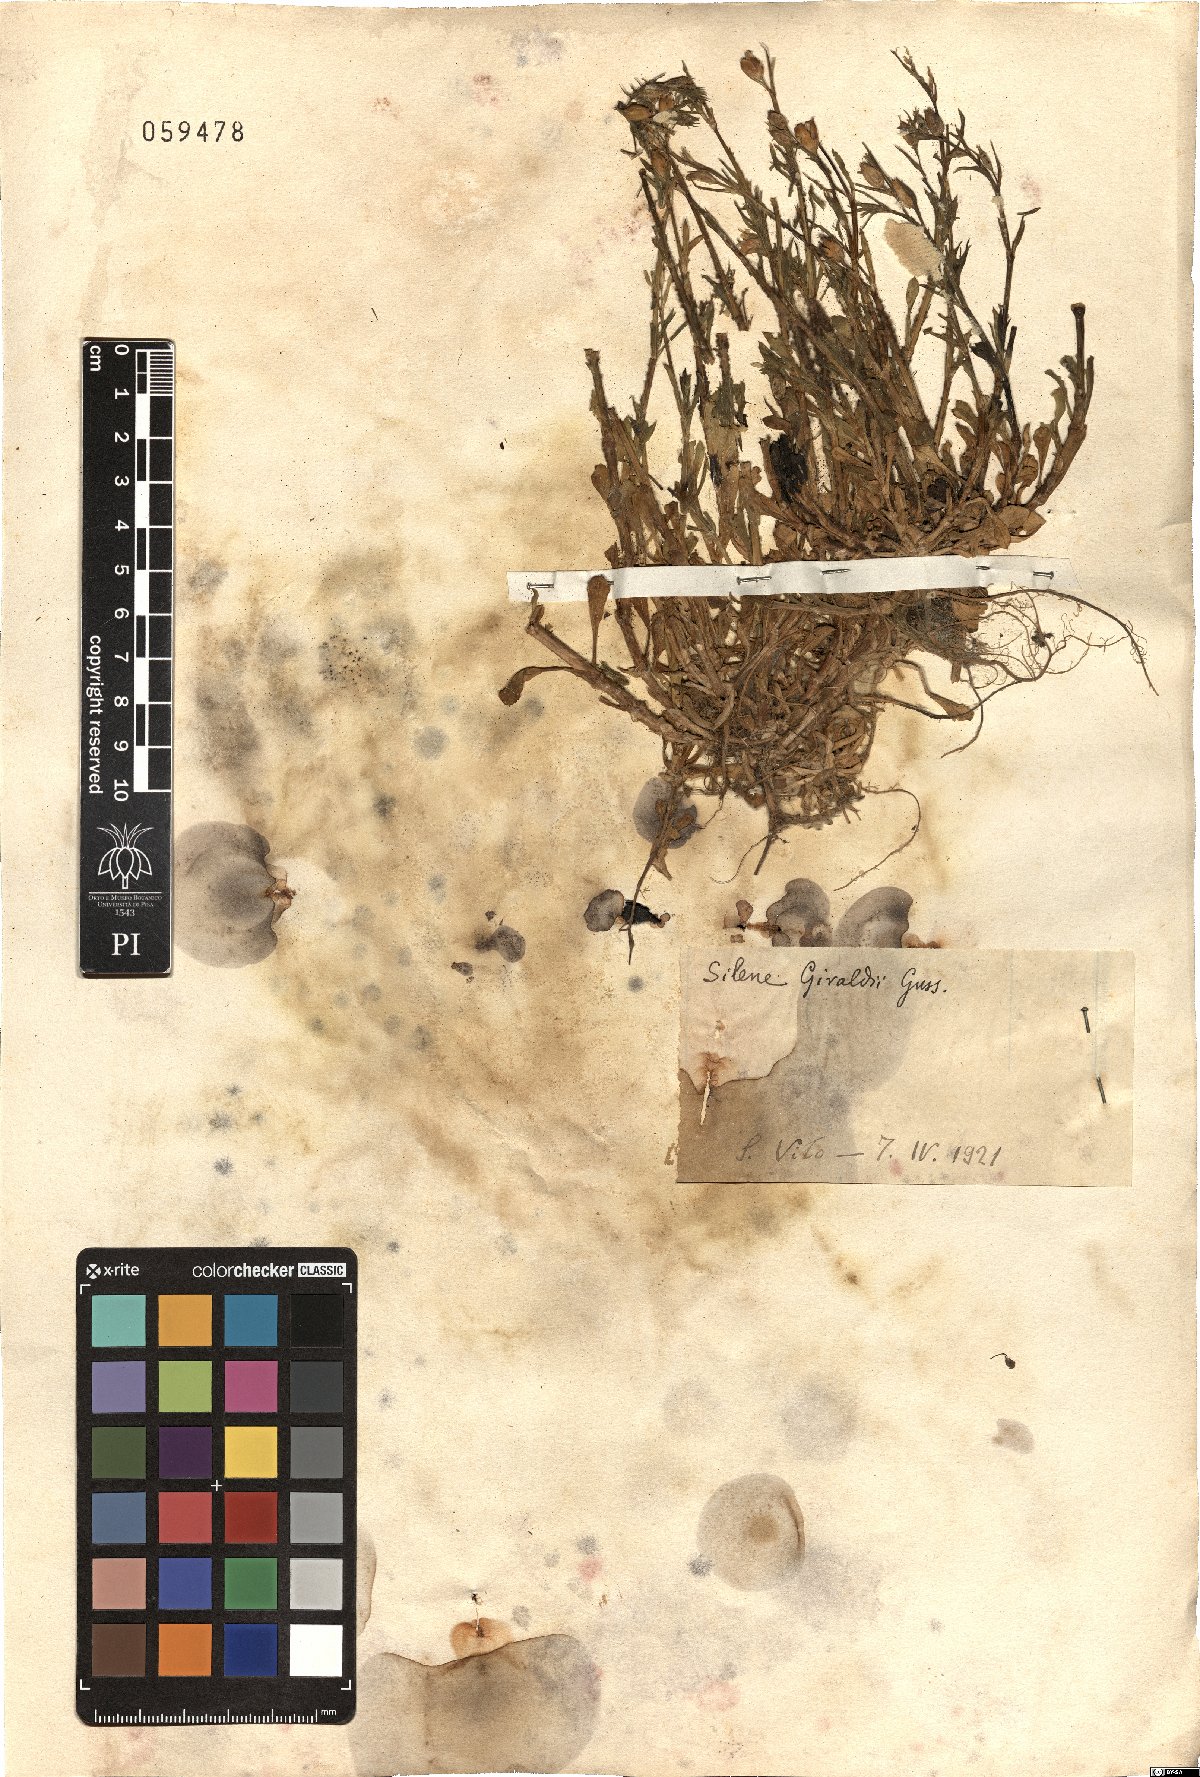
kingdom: Plantae
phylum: Tracheophyta
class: Magnoliopsida
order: Caryophyllales
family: Caryophyllaceae
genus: Silene
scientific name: Silene gallica
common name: Small-flowered catchfly
